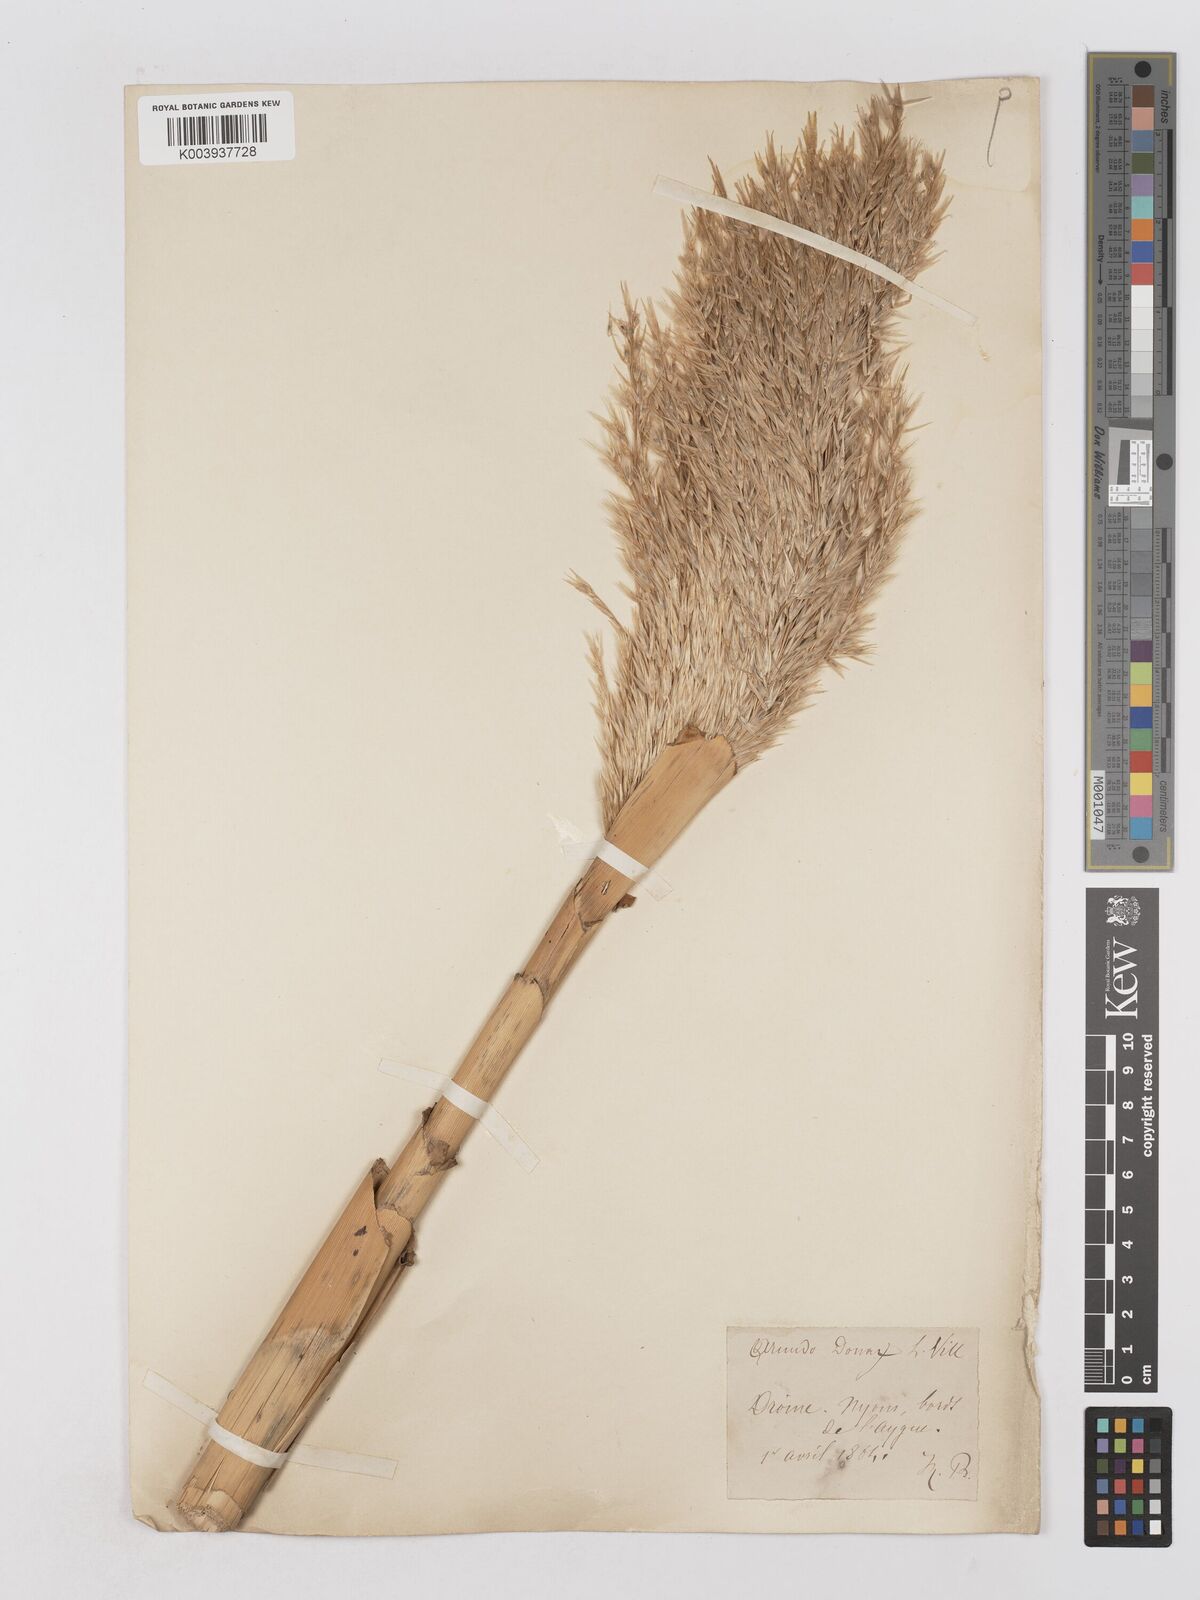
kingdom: Plantae
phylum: Tracheophyta
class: Liliopsida
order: Poales
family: Poaceae
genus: Arundo
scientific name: Arundo donax
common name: Giant reed
